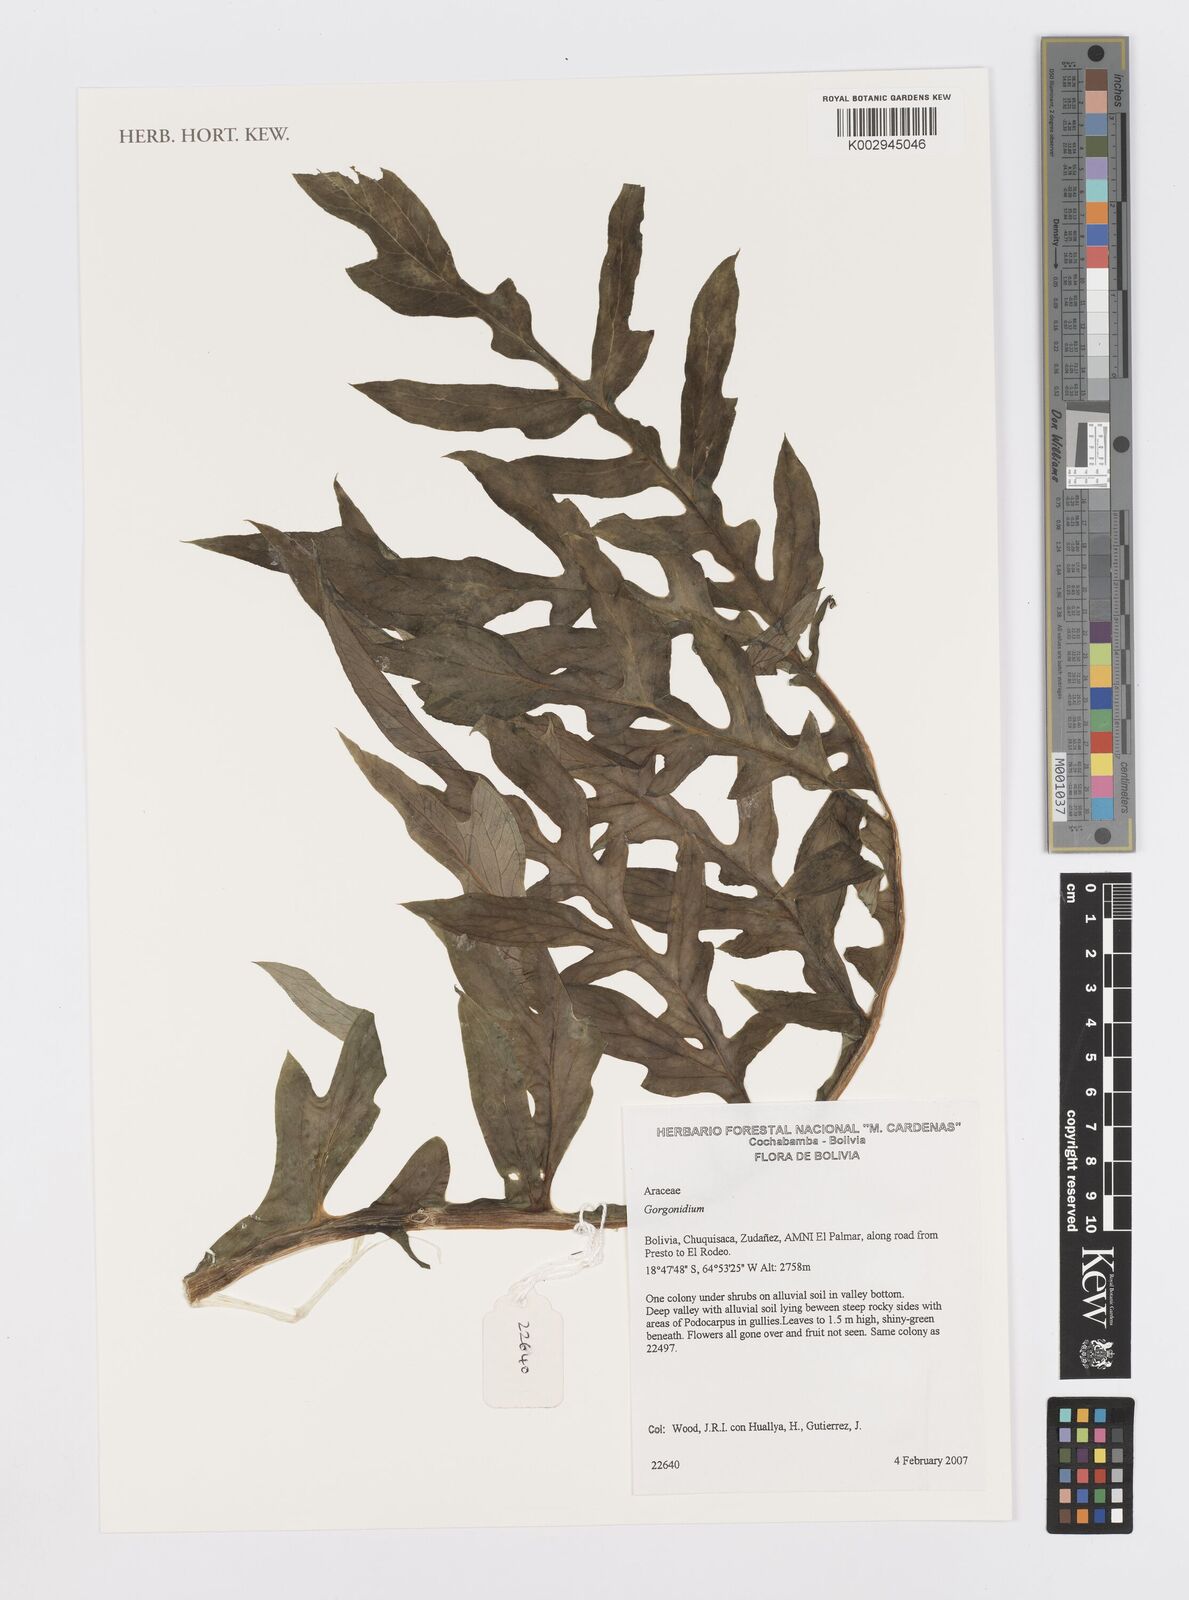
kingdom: Plantae
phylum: Tracheophyta
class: Liliopsida
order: Alismatales
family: Araceae
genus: Gorgonidium
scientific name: Gorgonidium
